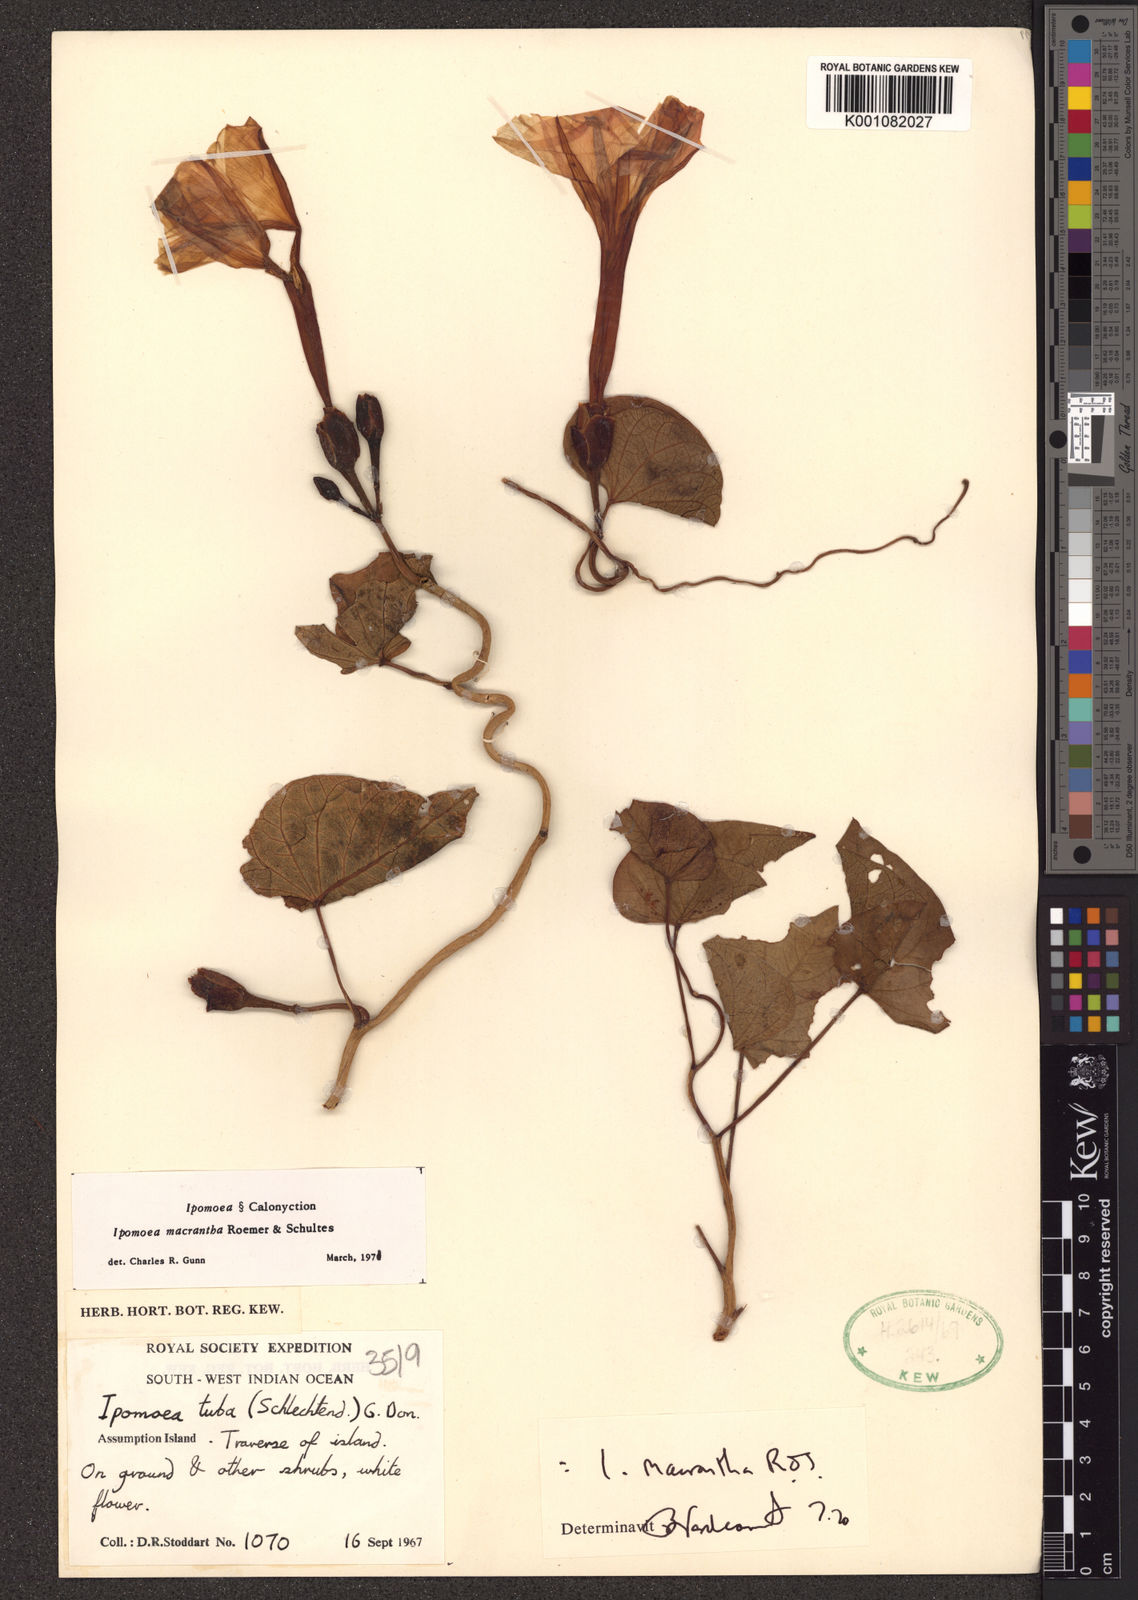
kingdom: Plantae
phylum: Tracheophyta
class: Magnoliopsida
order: Solanales
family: Convolvulaceae
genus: Ipomoea
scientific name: Ipomoea violacea
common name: Beach moonflower
